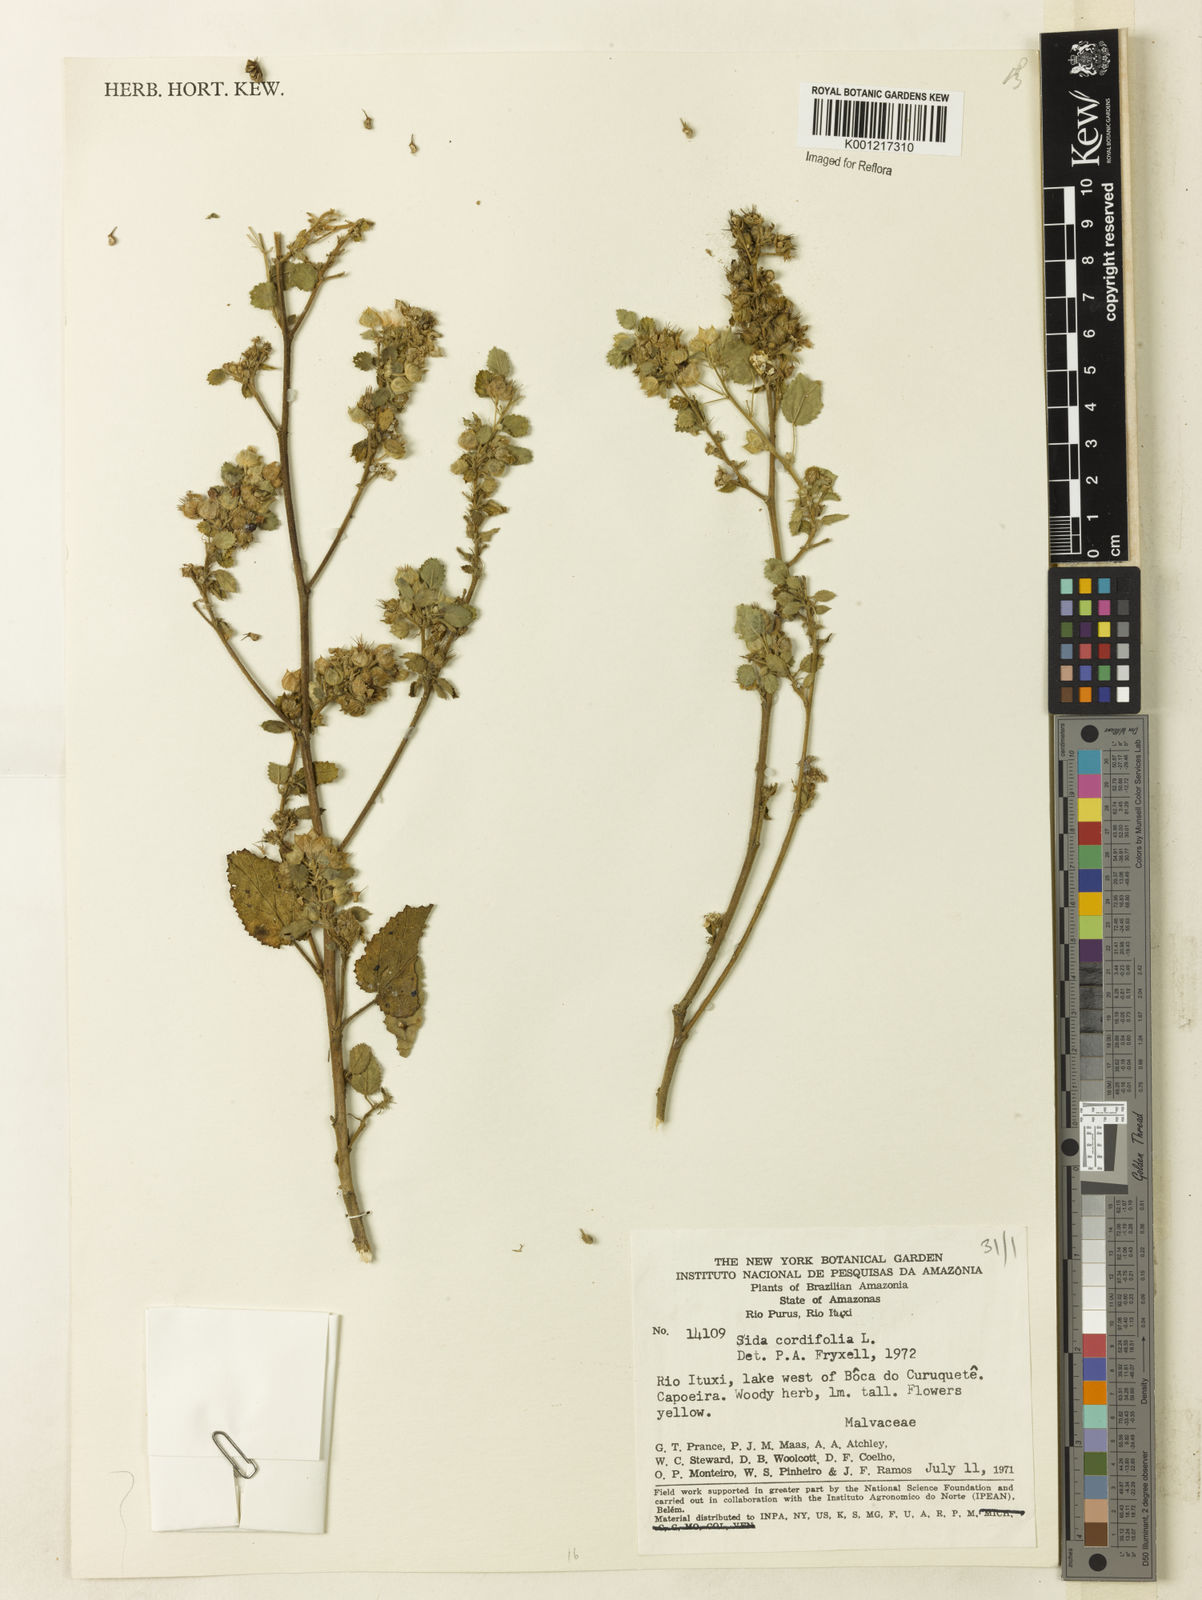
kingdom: Plantae
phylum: Tracheophyta
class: Magnoliopsida
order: Malvales
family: Malvaceae
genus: Sida
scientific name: Sida cordifolia
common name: Ilima
